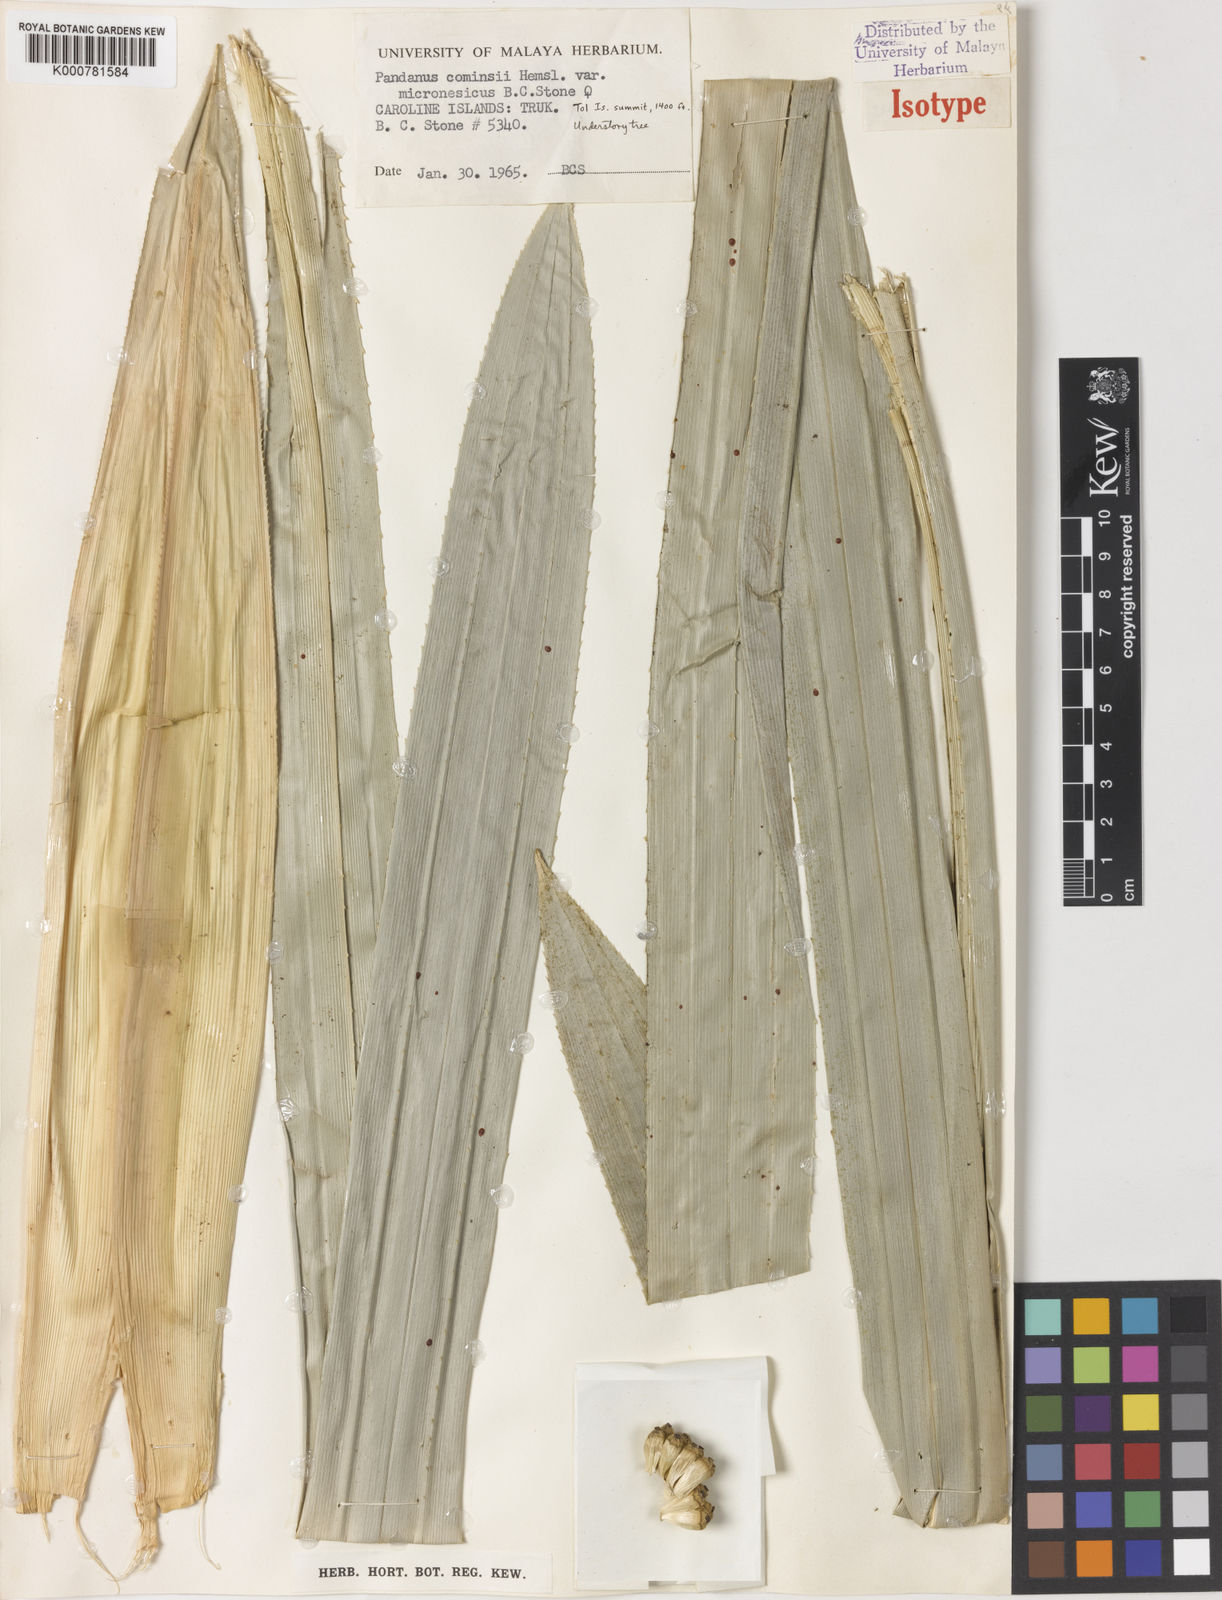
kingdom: Plantae
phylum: Tracheophyta
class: Liliopsida
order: Pandanales
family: Pandanaceae
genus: Pandanus
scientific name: Pandanus conoideus
